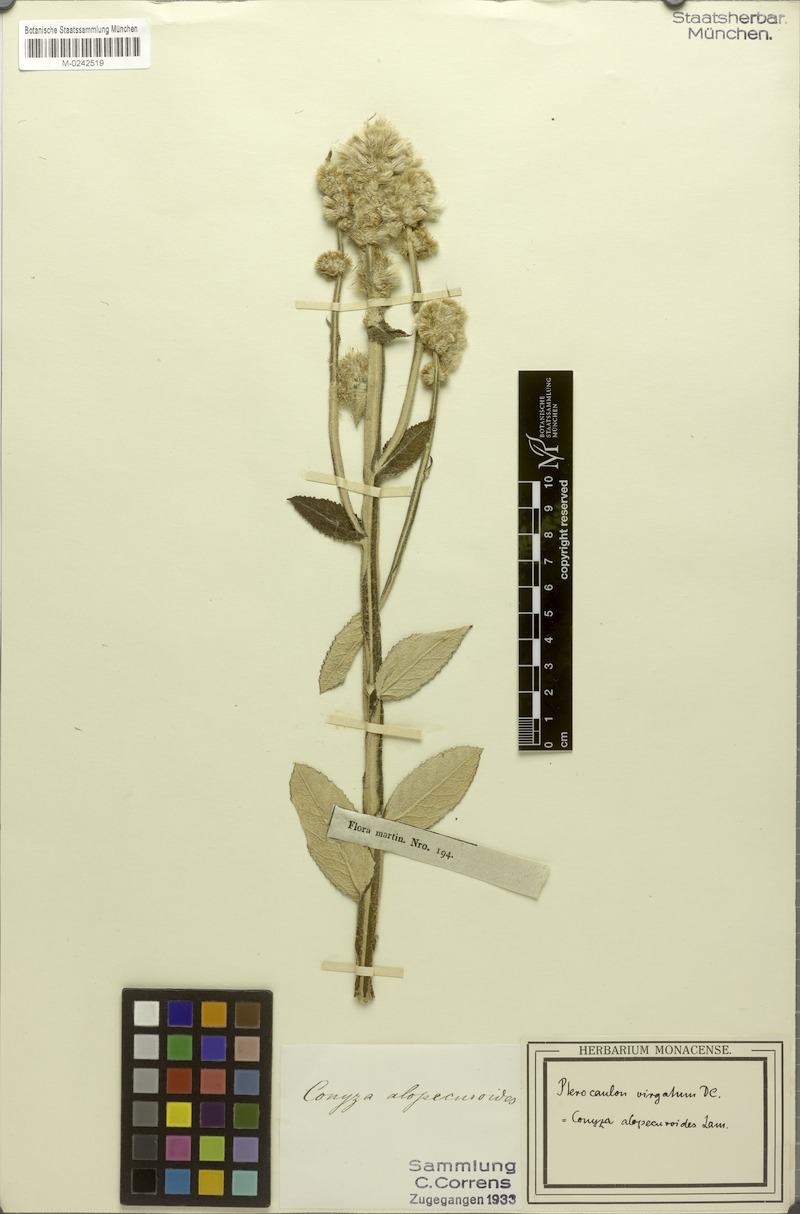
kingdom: Plantae
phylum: Tracheophyta
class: Magnoliopsida
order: Asterales
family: Asteraceae
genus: Pterocaulon
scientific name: Pterocaulon virgatum
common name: Wand blackroot
